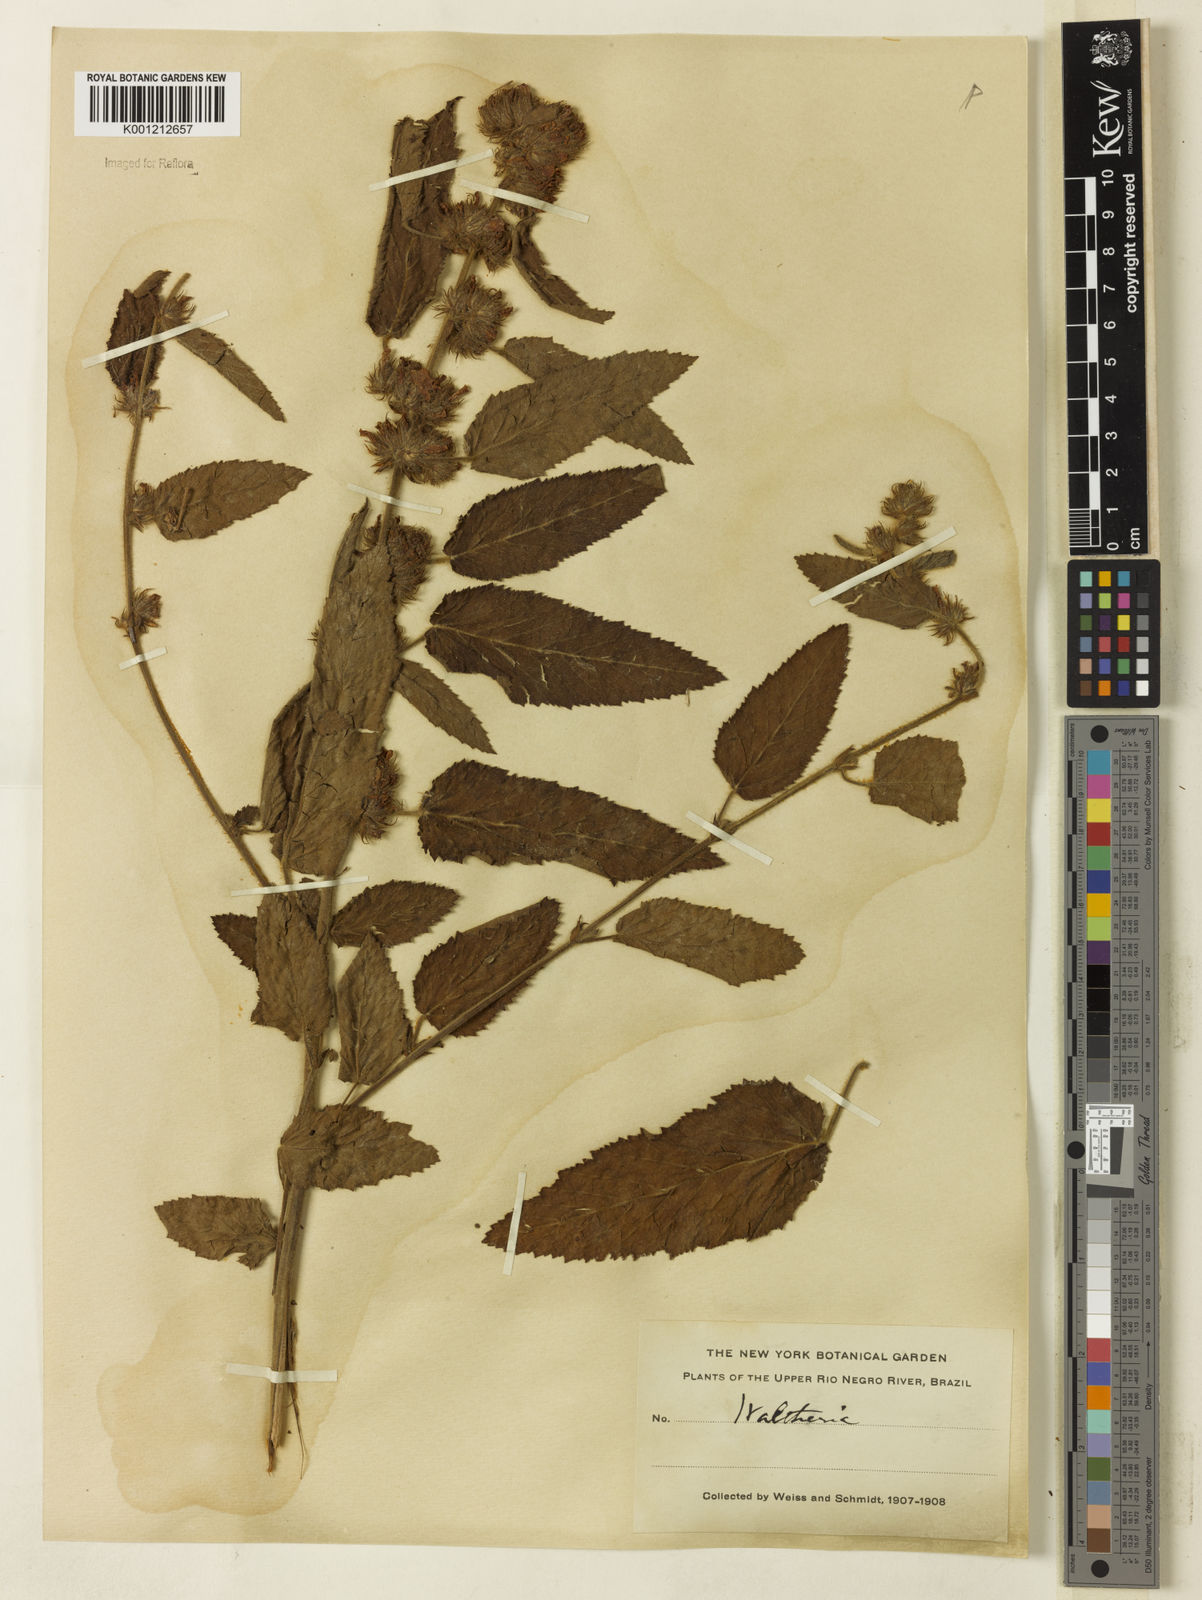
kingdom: Plantae
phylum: Tracheophyta
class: Magnoliopsida
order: Malvales
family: Malvaceae
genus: Melochia
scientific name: Melochia spicata
